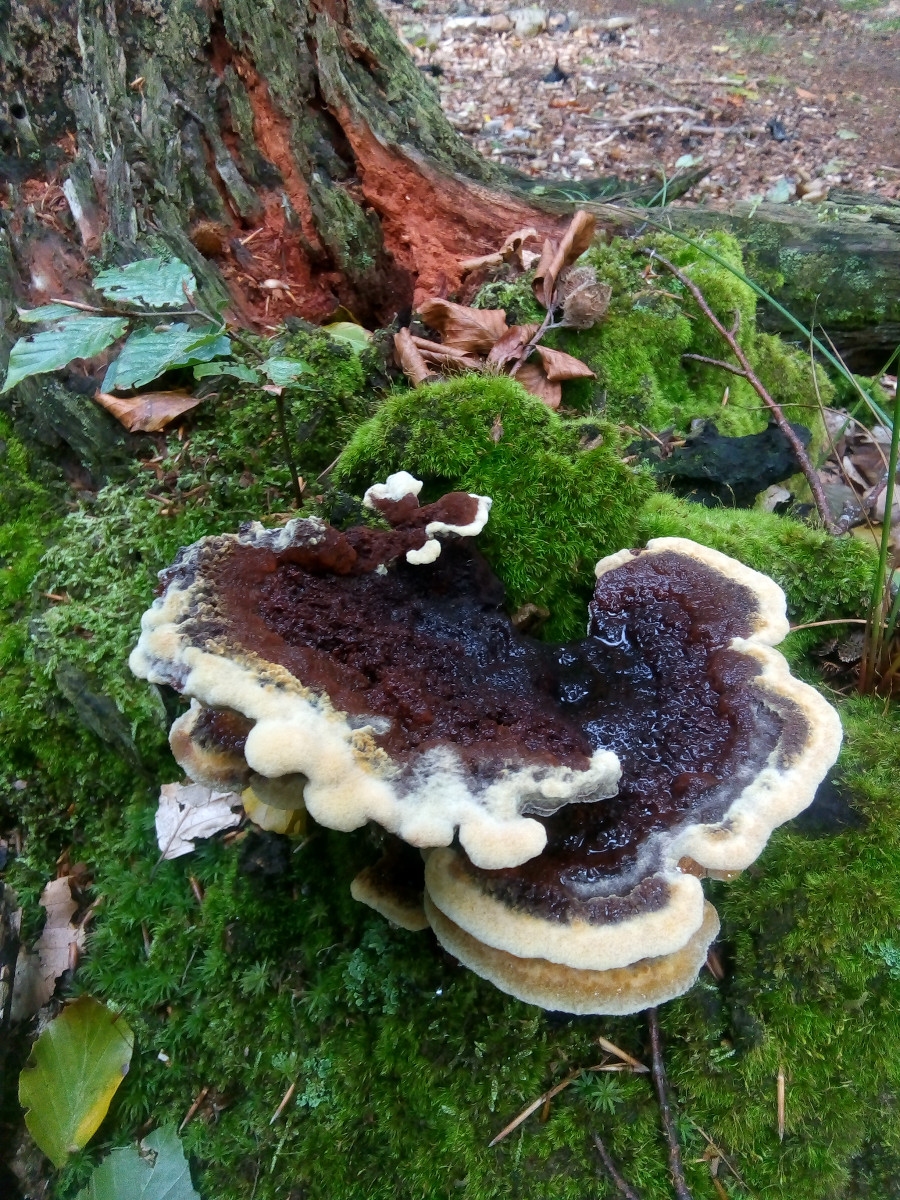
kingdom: Fungi
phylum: Basidiomycota
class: Agaricomycetes
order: Polyporales
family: Laetiporaceae
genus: Phaeolus
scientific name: Phaeolus schweinitzii
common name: brunporesvamp
